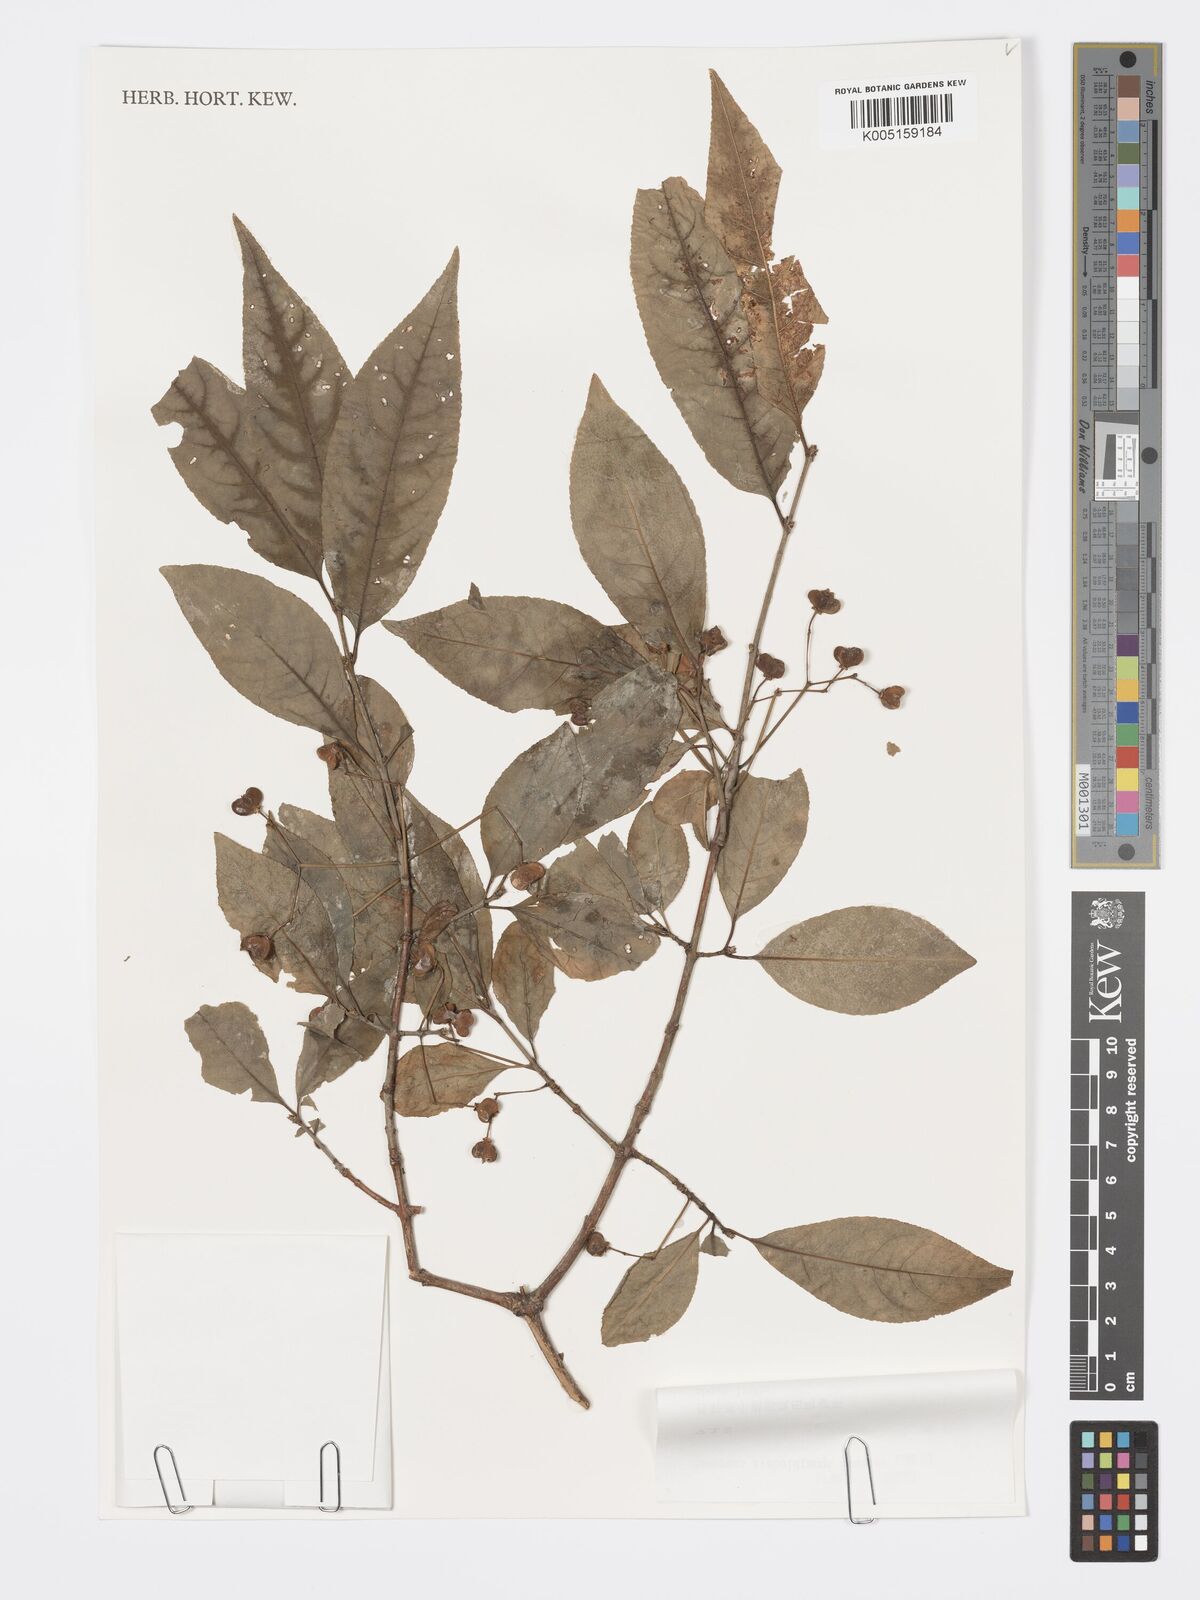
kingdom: Plantae
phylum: Tracheophyta
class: Magnoliopsida
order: Celastrales
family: Celastraceae
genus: Euonymus
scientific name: Euonymus hamiltonianus
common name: Hamilton's spindletree
